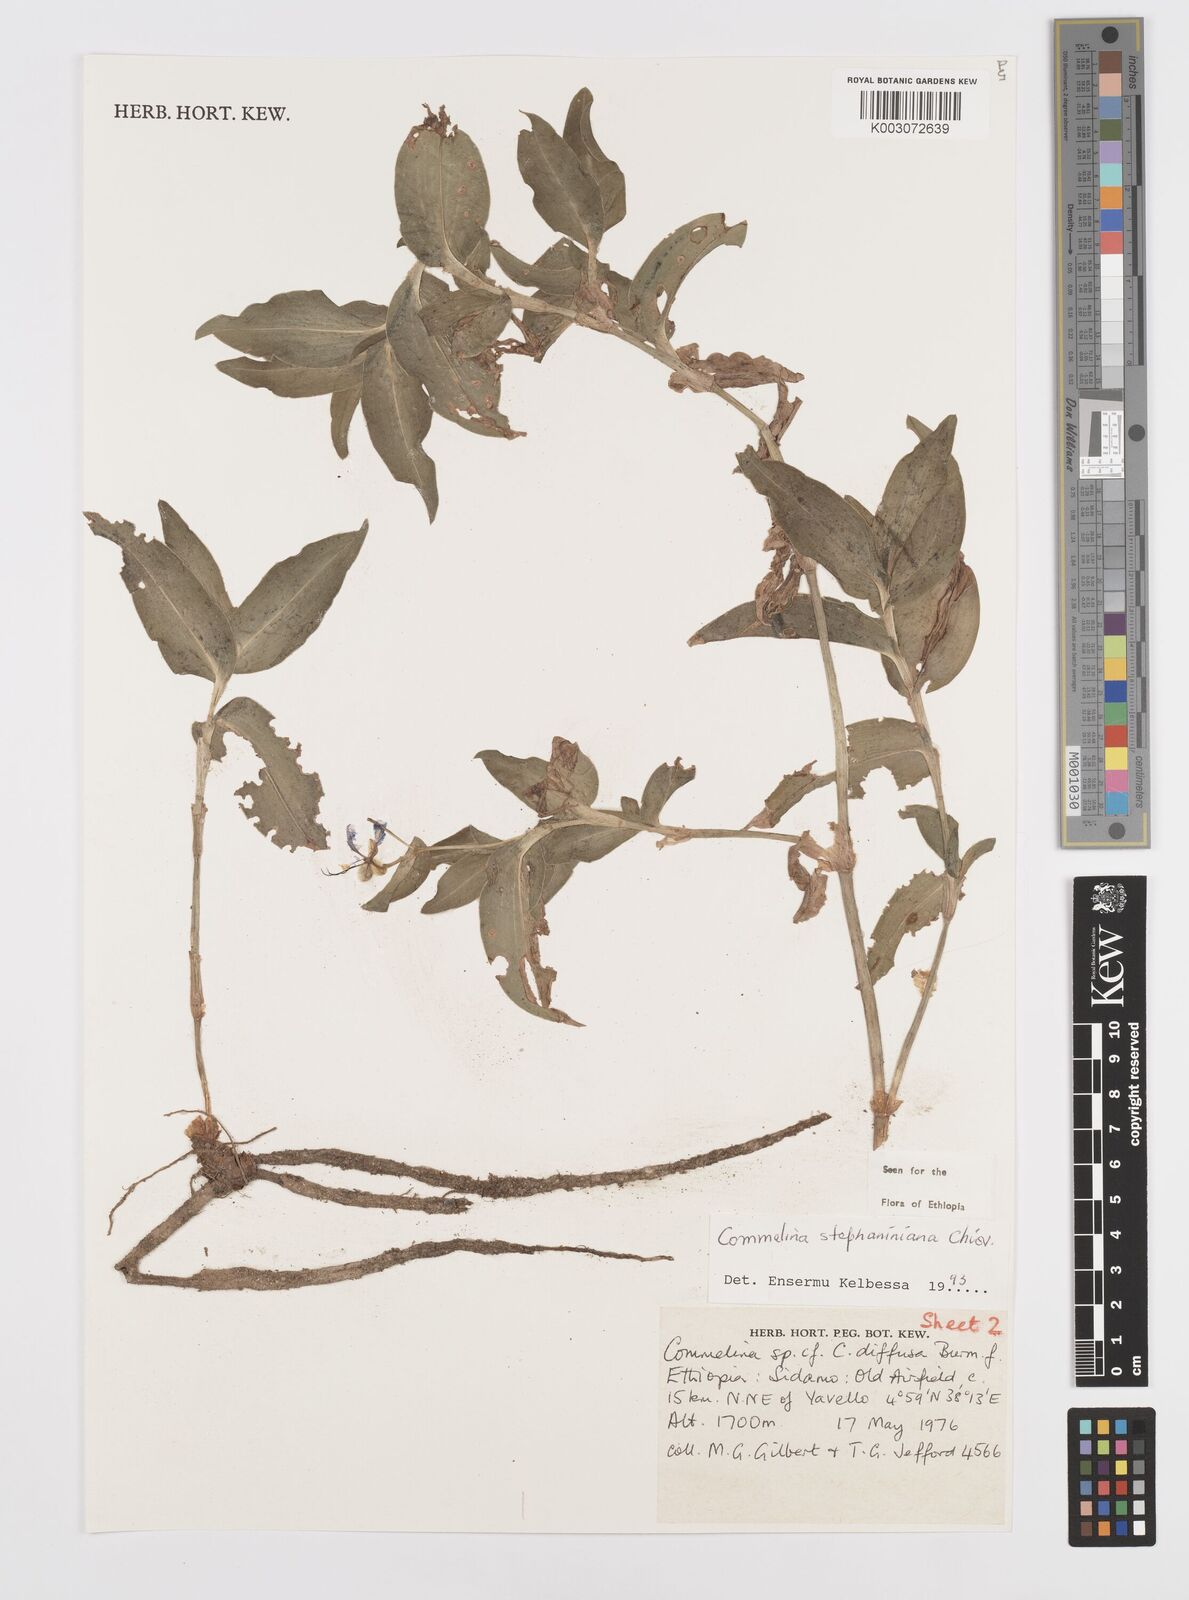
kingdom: Plantae
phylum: Tracheophyta
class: Liliopsida
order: Commelinales
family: Commelinaceae
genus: Commelina
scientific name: Commelina stefaniniana
